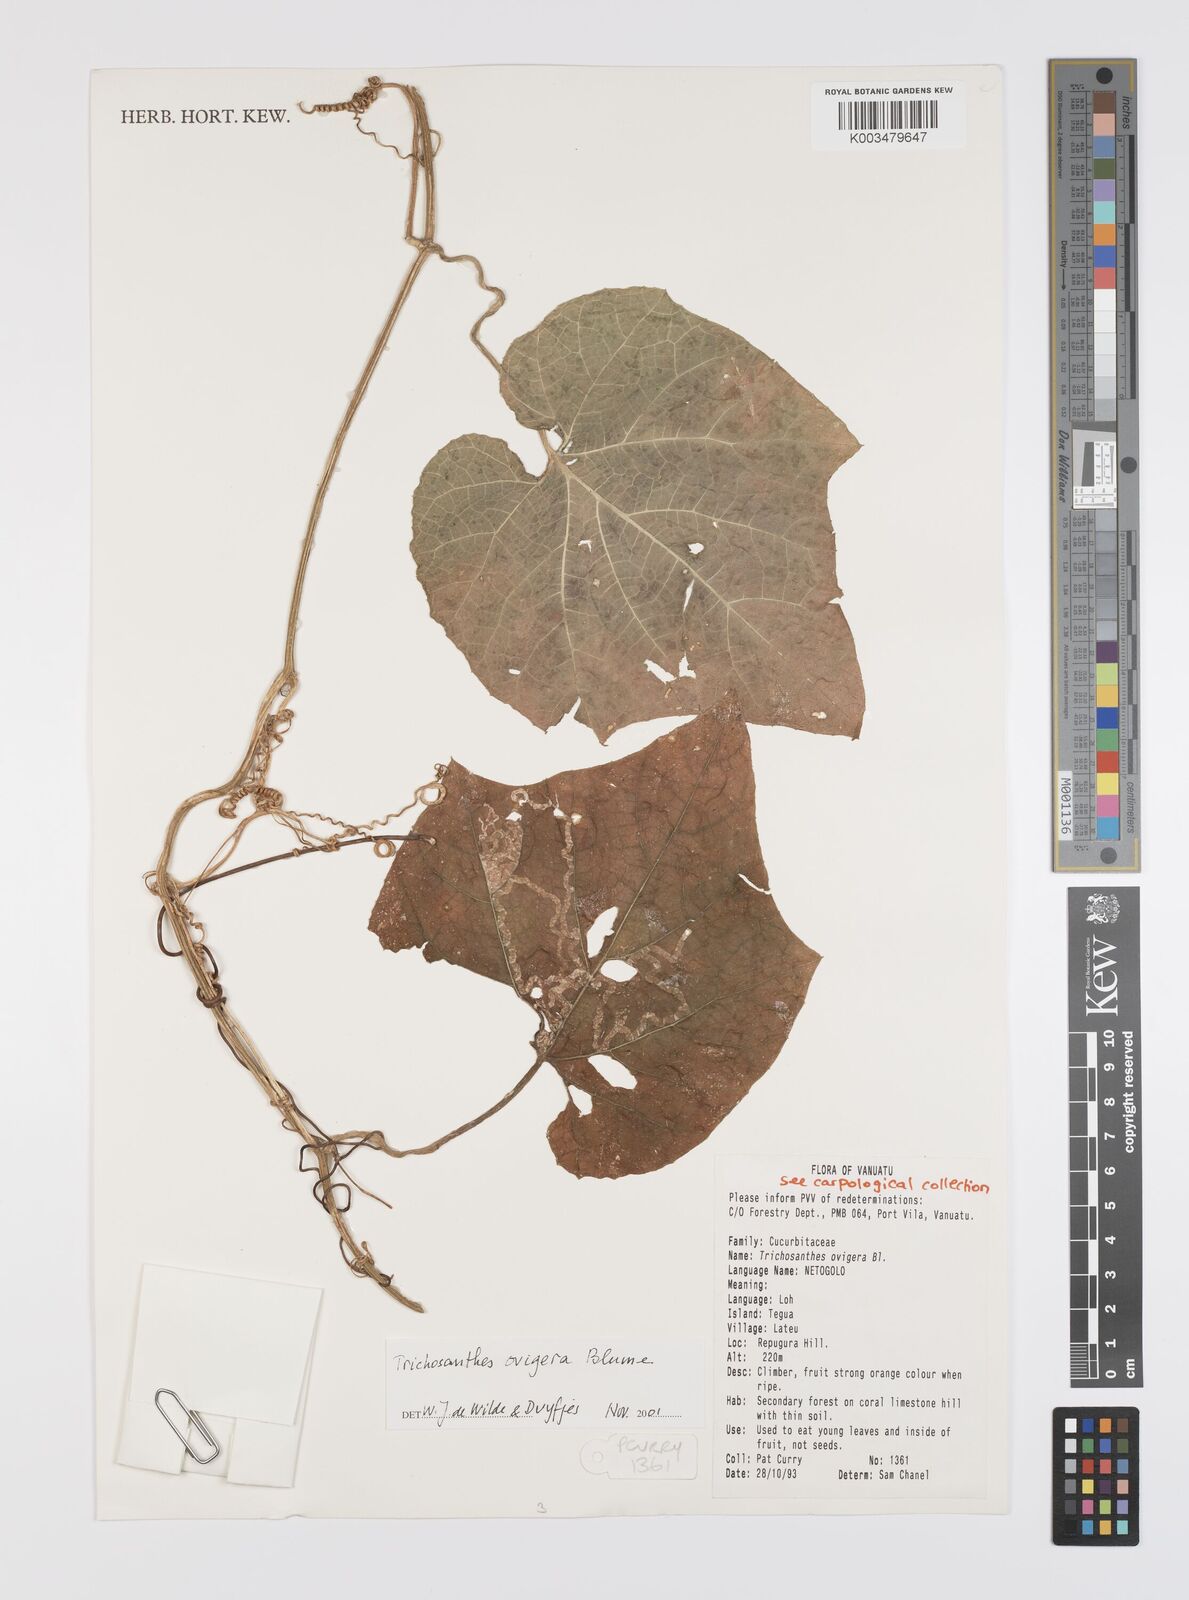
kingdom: Plantae
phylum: Tracheophyta
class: Magnoliopsida
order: Cucurbitales
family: Cucurbitaceae
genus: Trichosanthes
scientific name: Trichosanthes ovigera
